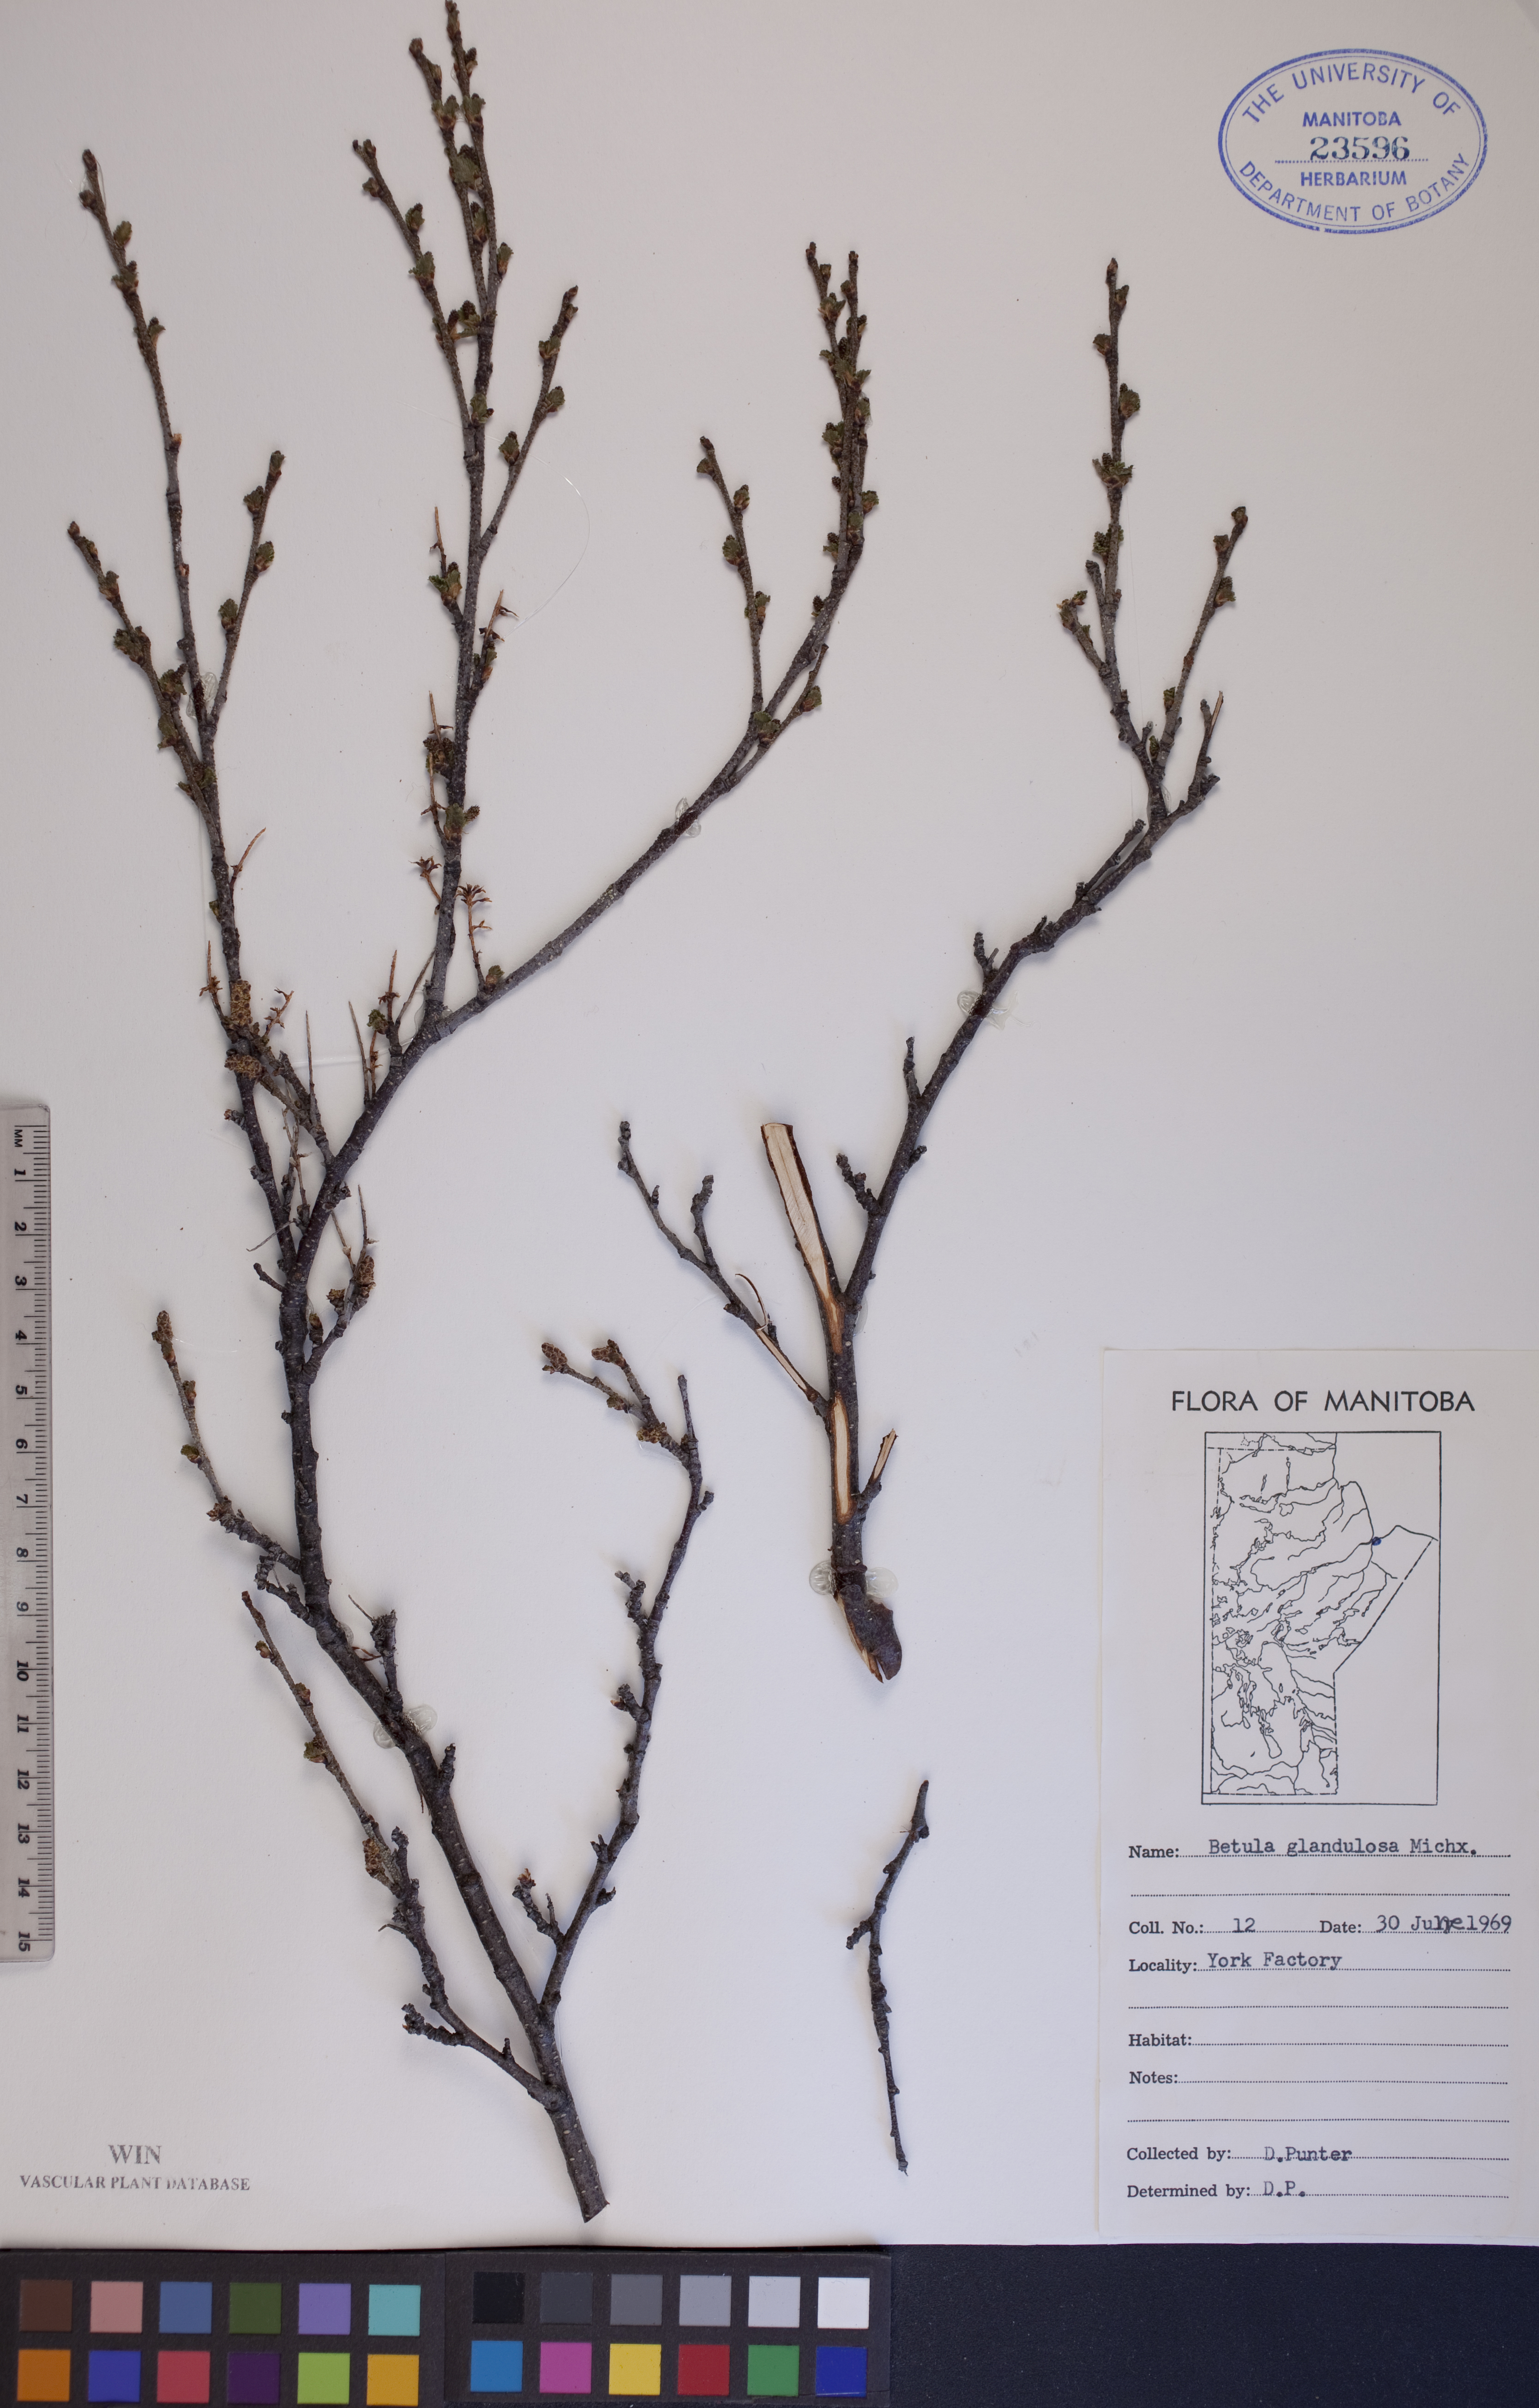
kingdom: Plantae
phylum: Tracheophyta
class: Magnoliopsida
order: Fagales
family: Betulaceae
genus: Betula
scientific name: Betula glandulosa
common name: Dwarf birch
